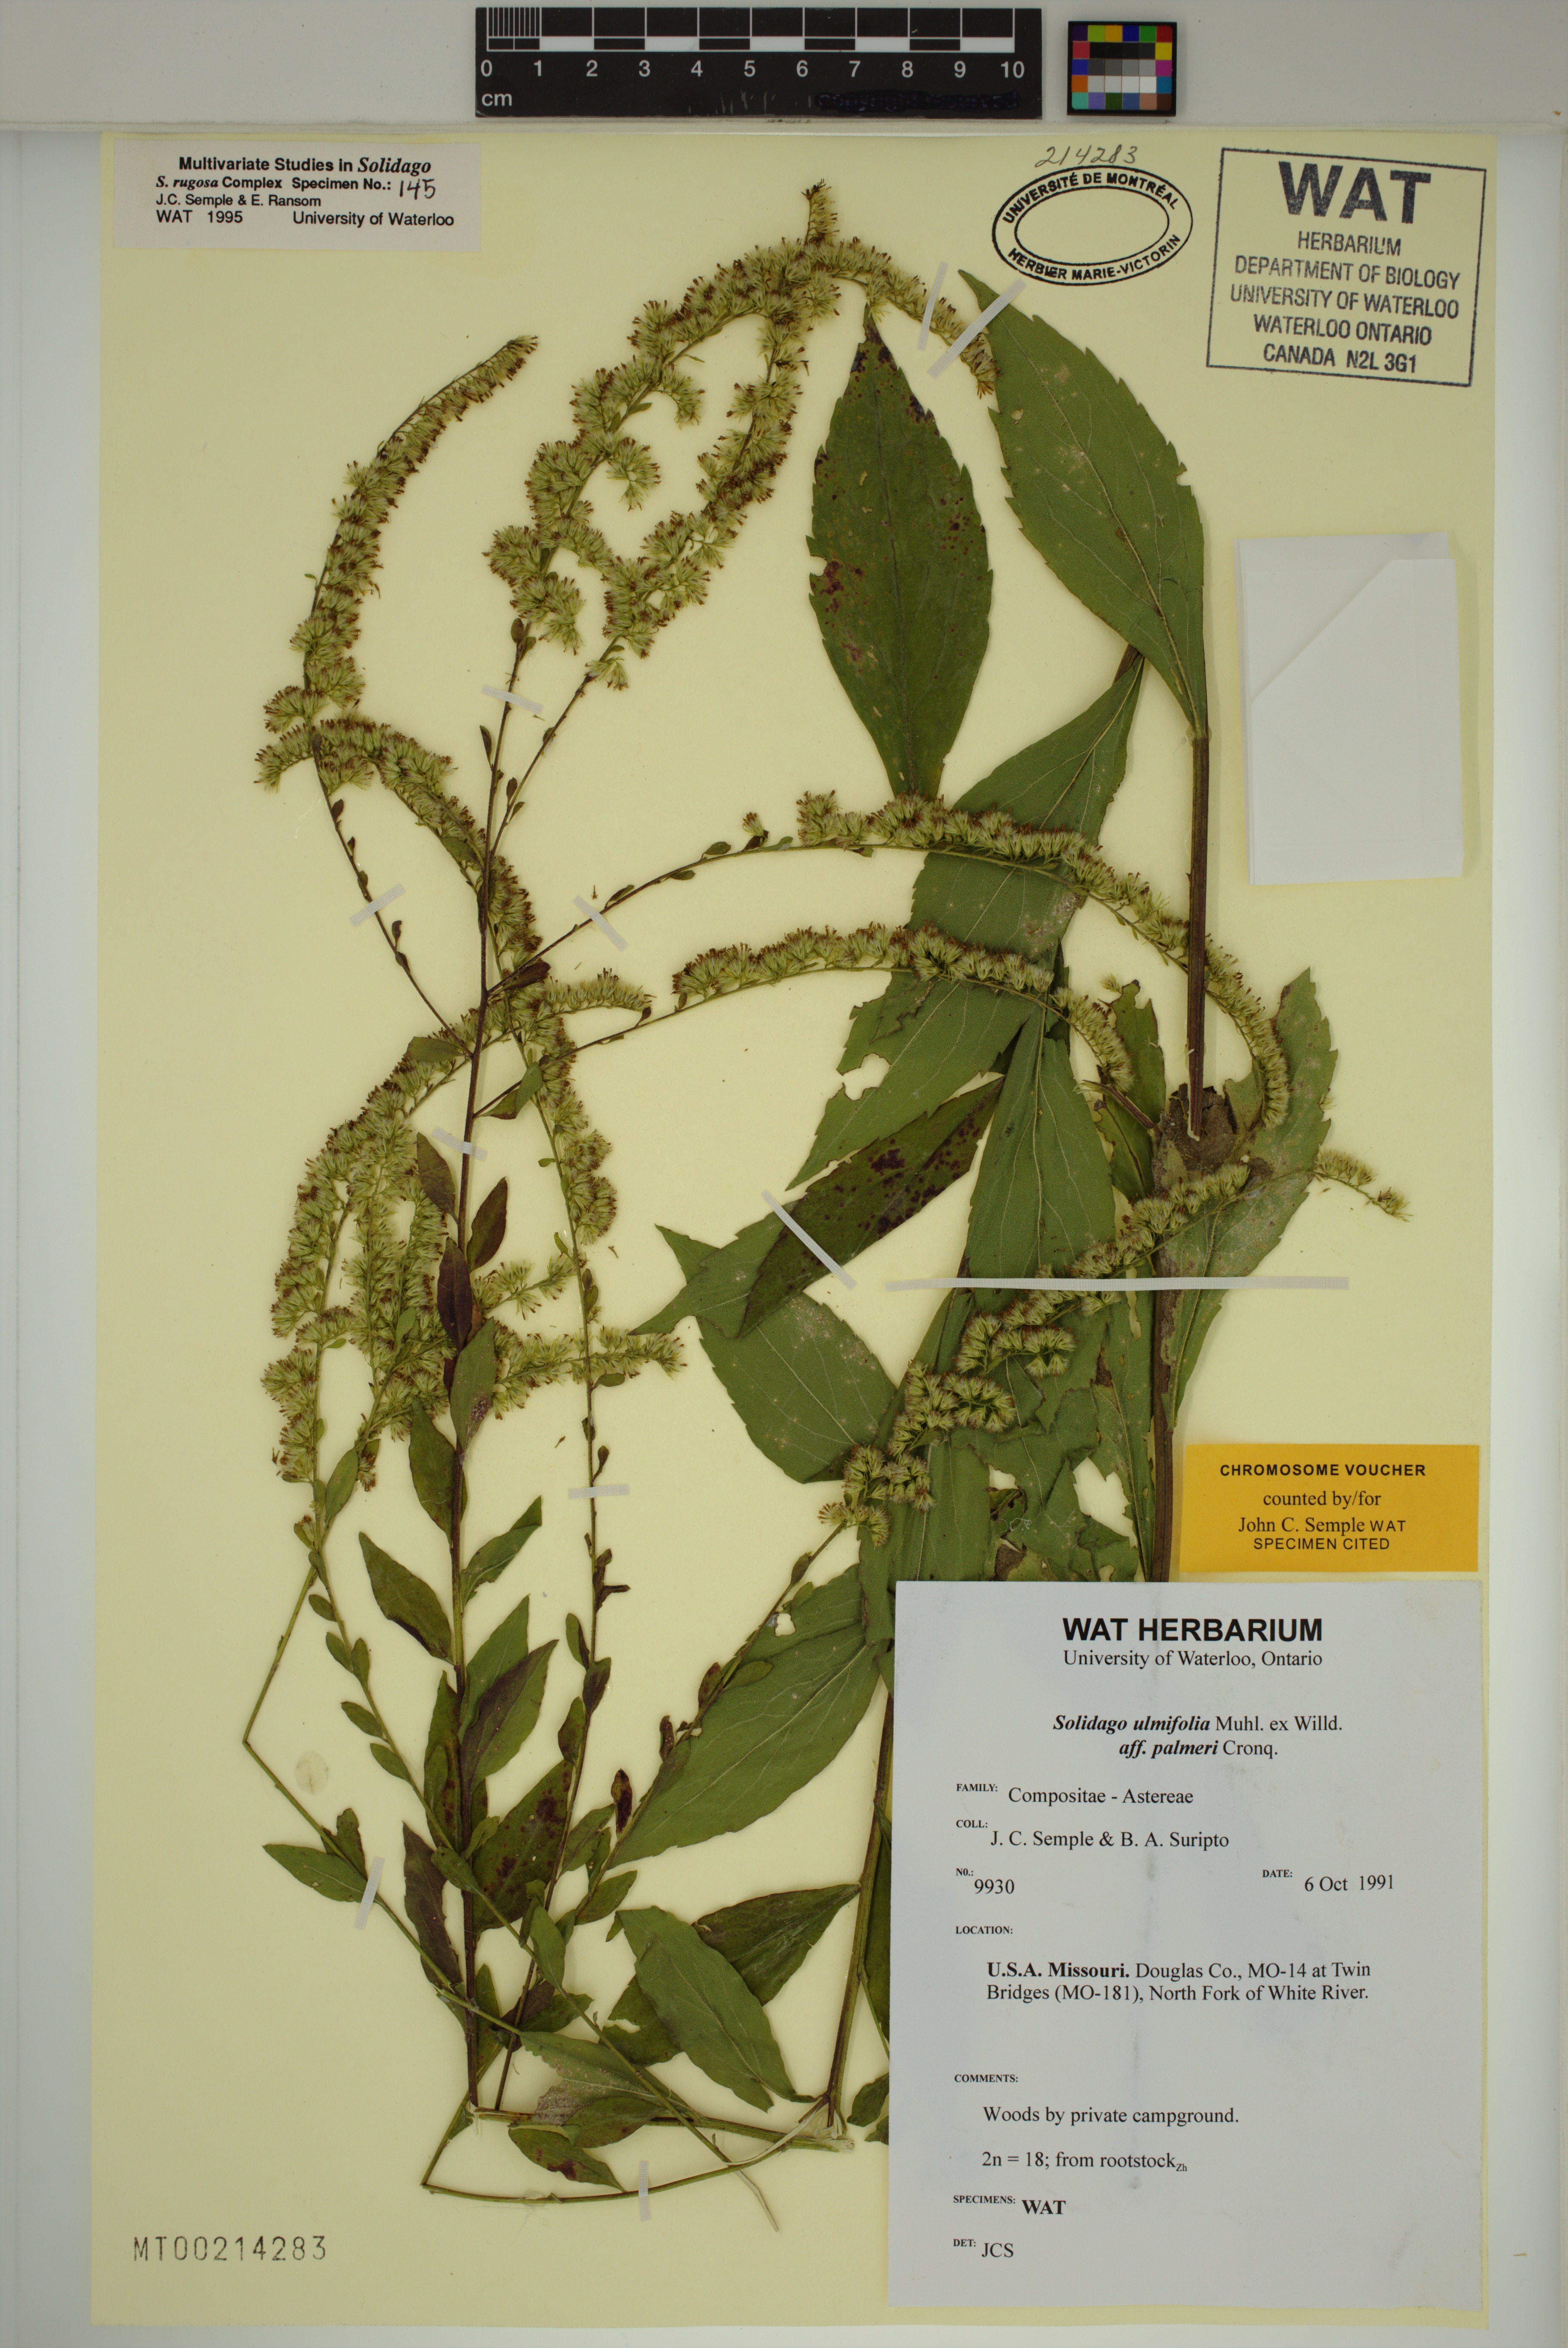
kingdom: Plantae
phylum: Tracheophyta
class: Magnoliopsida
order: Asterales
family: Asteraceae
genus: Solidago
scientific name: Solidago ulmifolia
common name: Elm-leaf goldenrod
